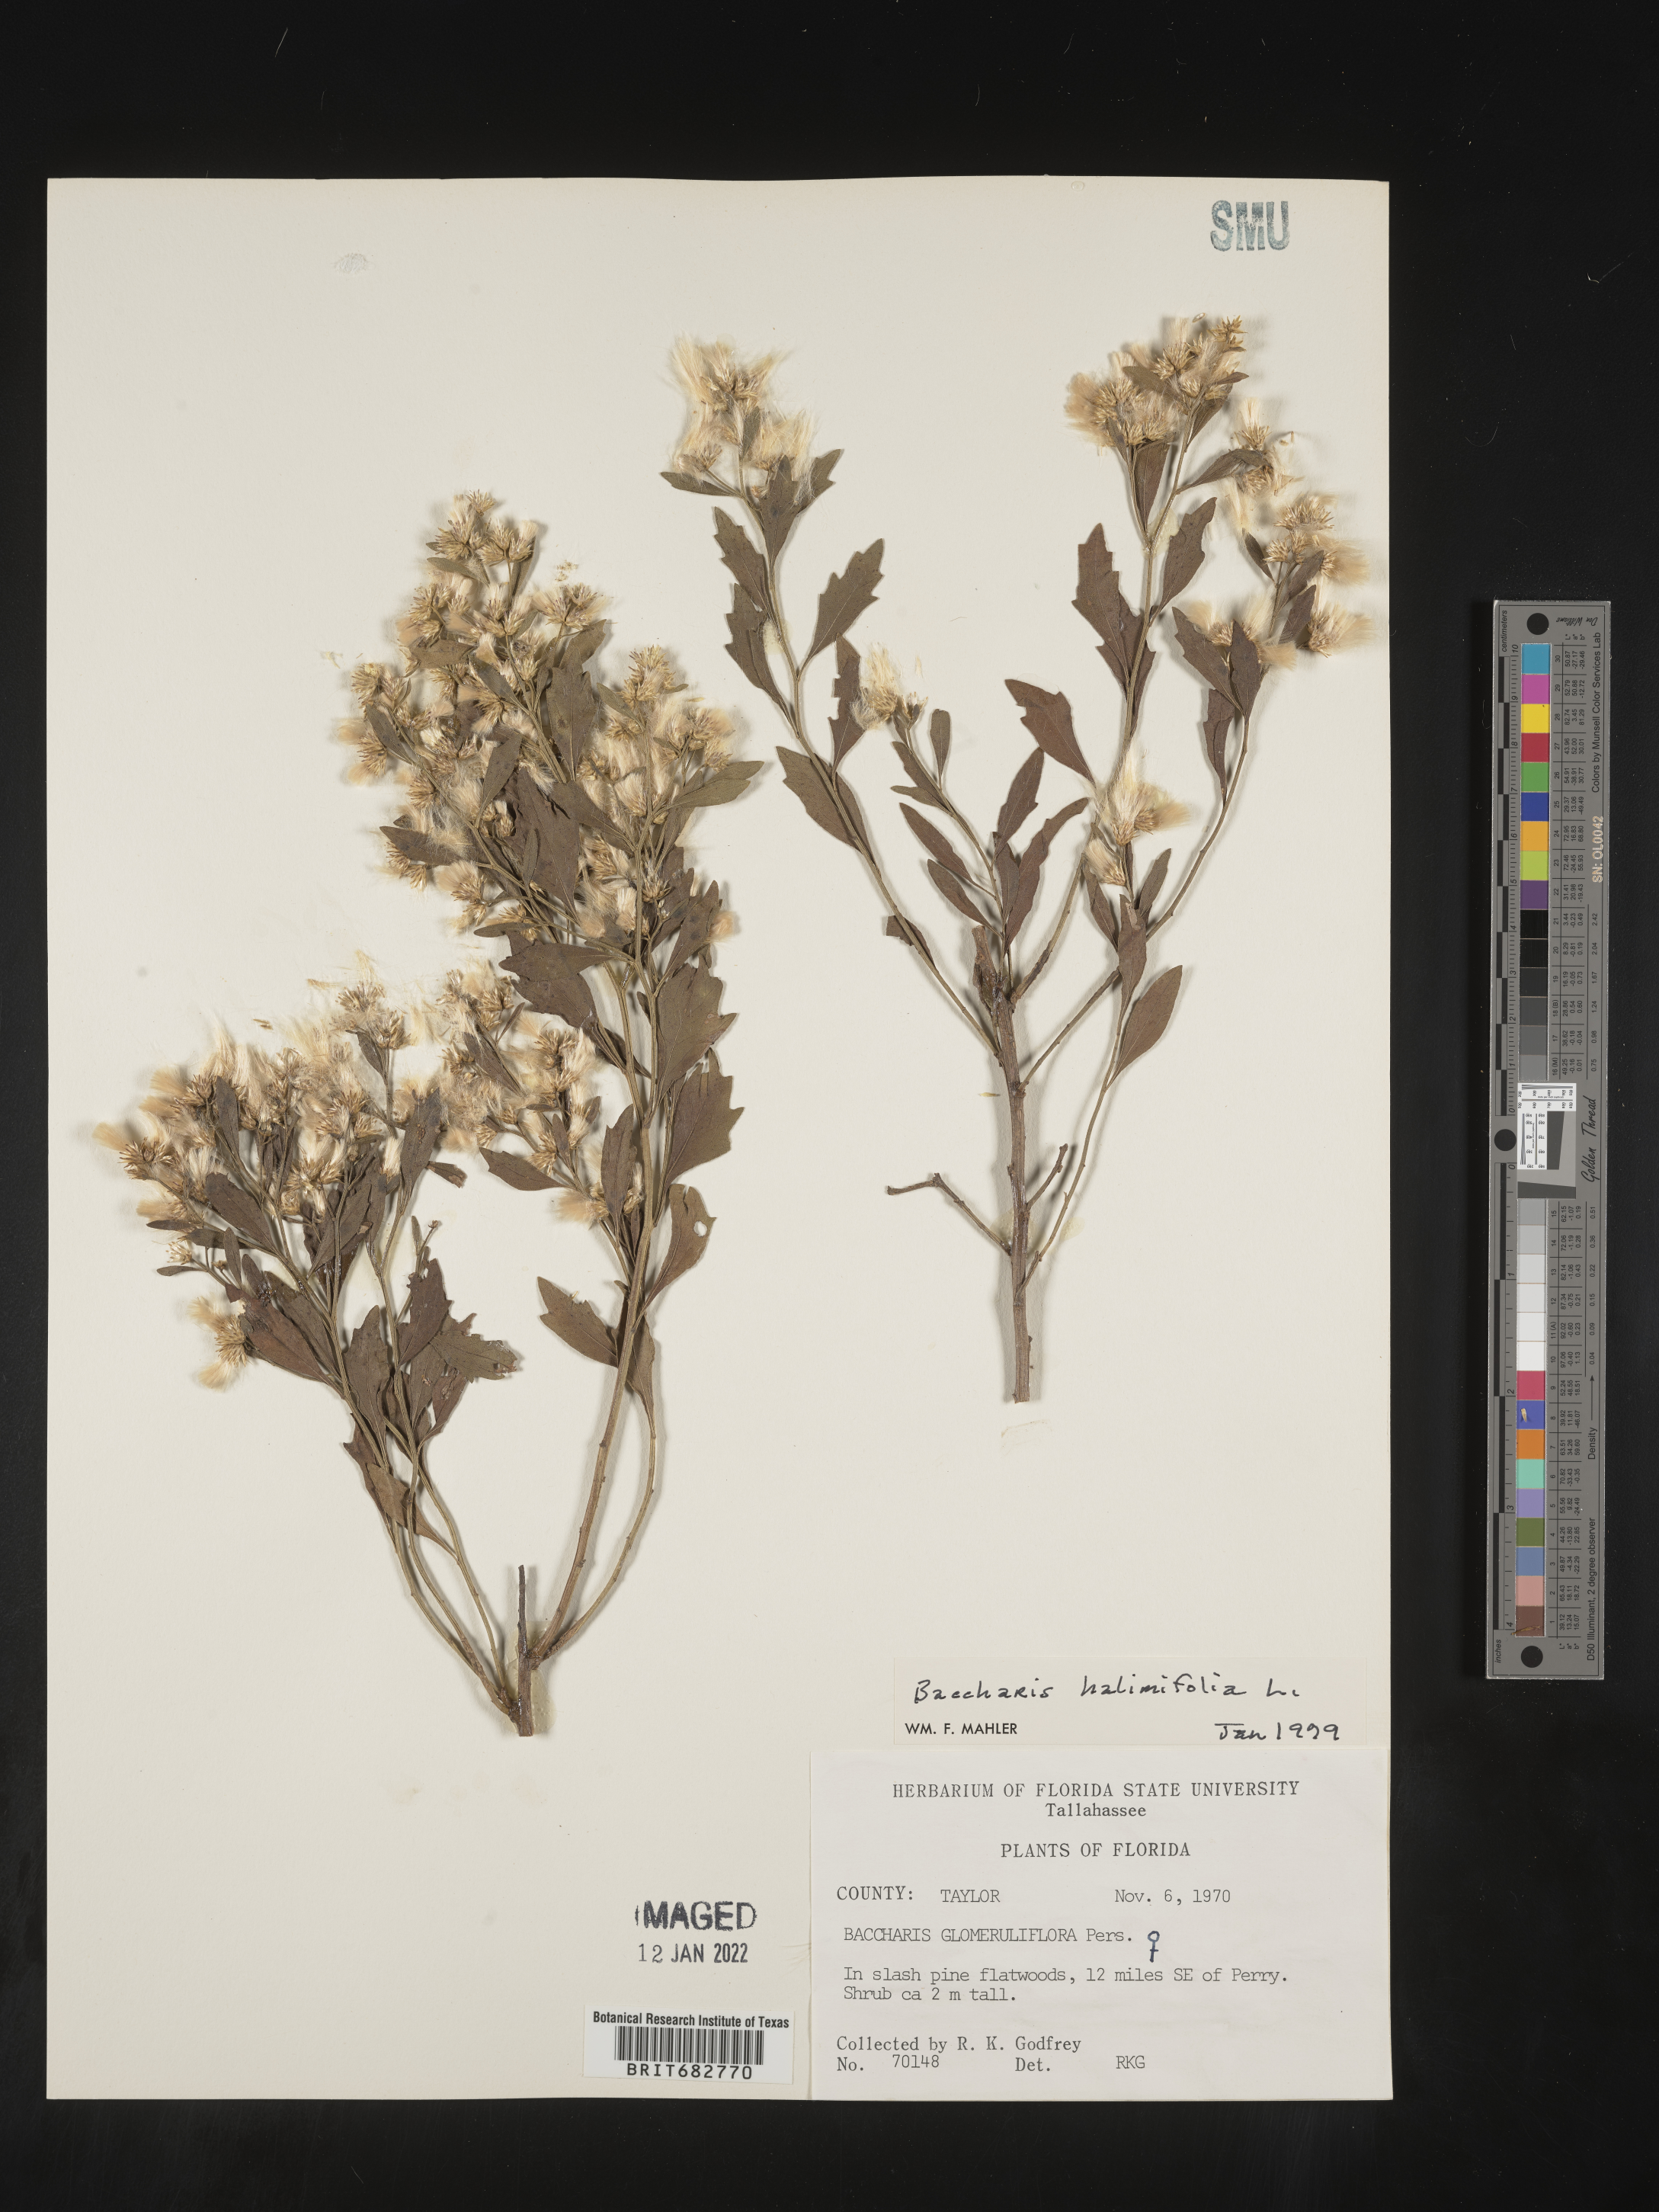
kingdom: Plantae
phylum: Tracheophyta
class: Magnoliopsida
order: Asterales
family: Asteraceae
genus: Nidorella
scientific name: Nidorella ivifolia
